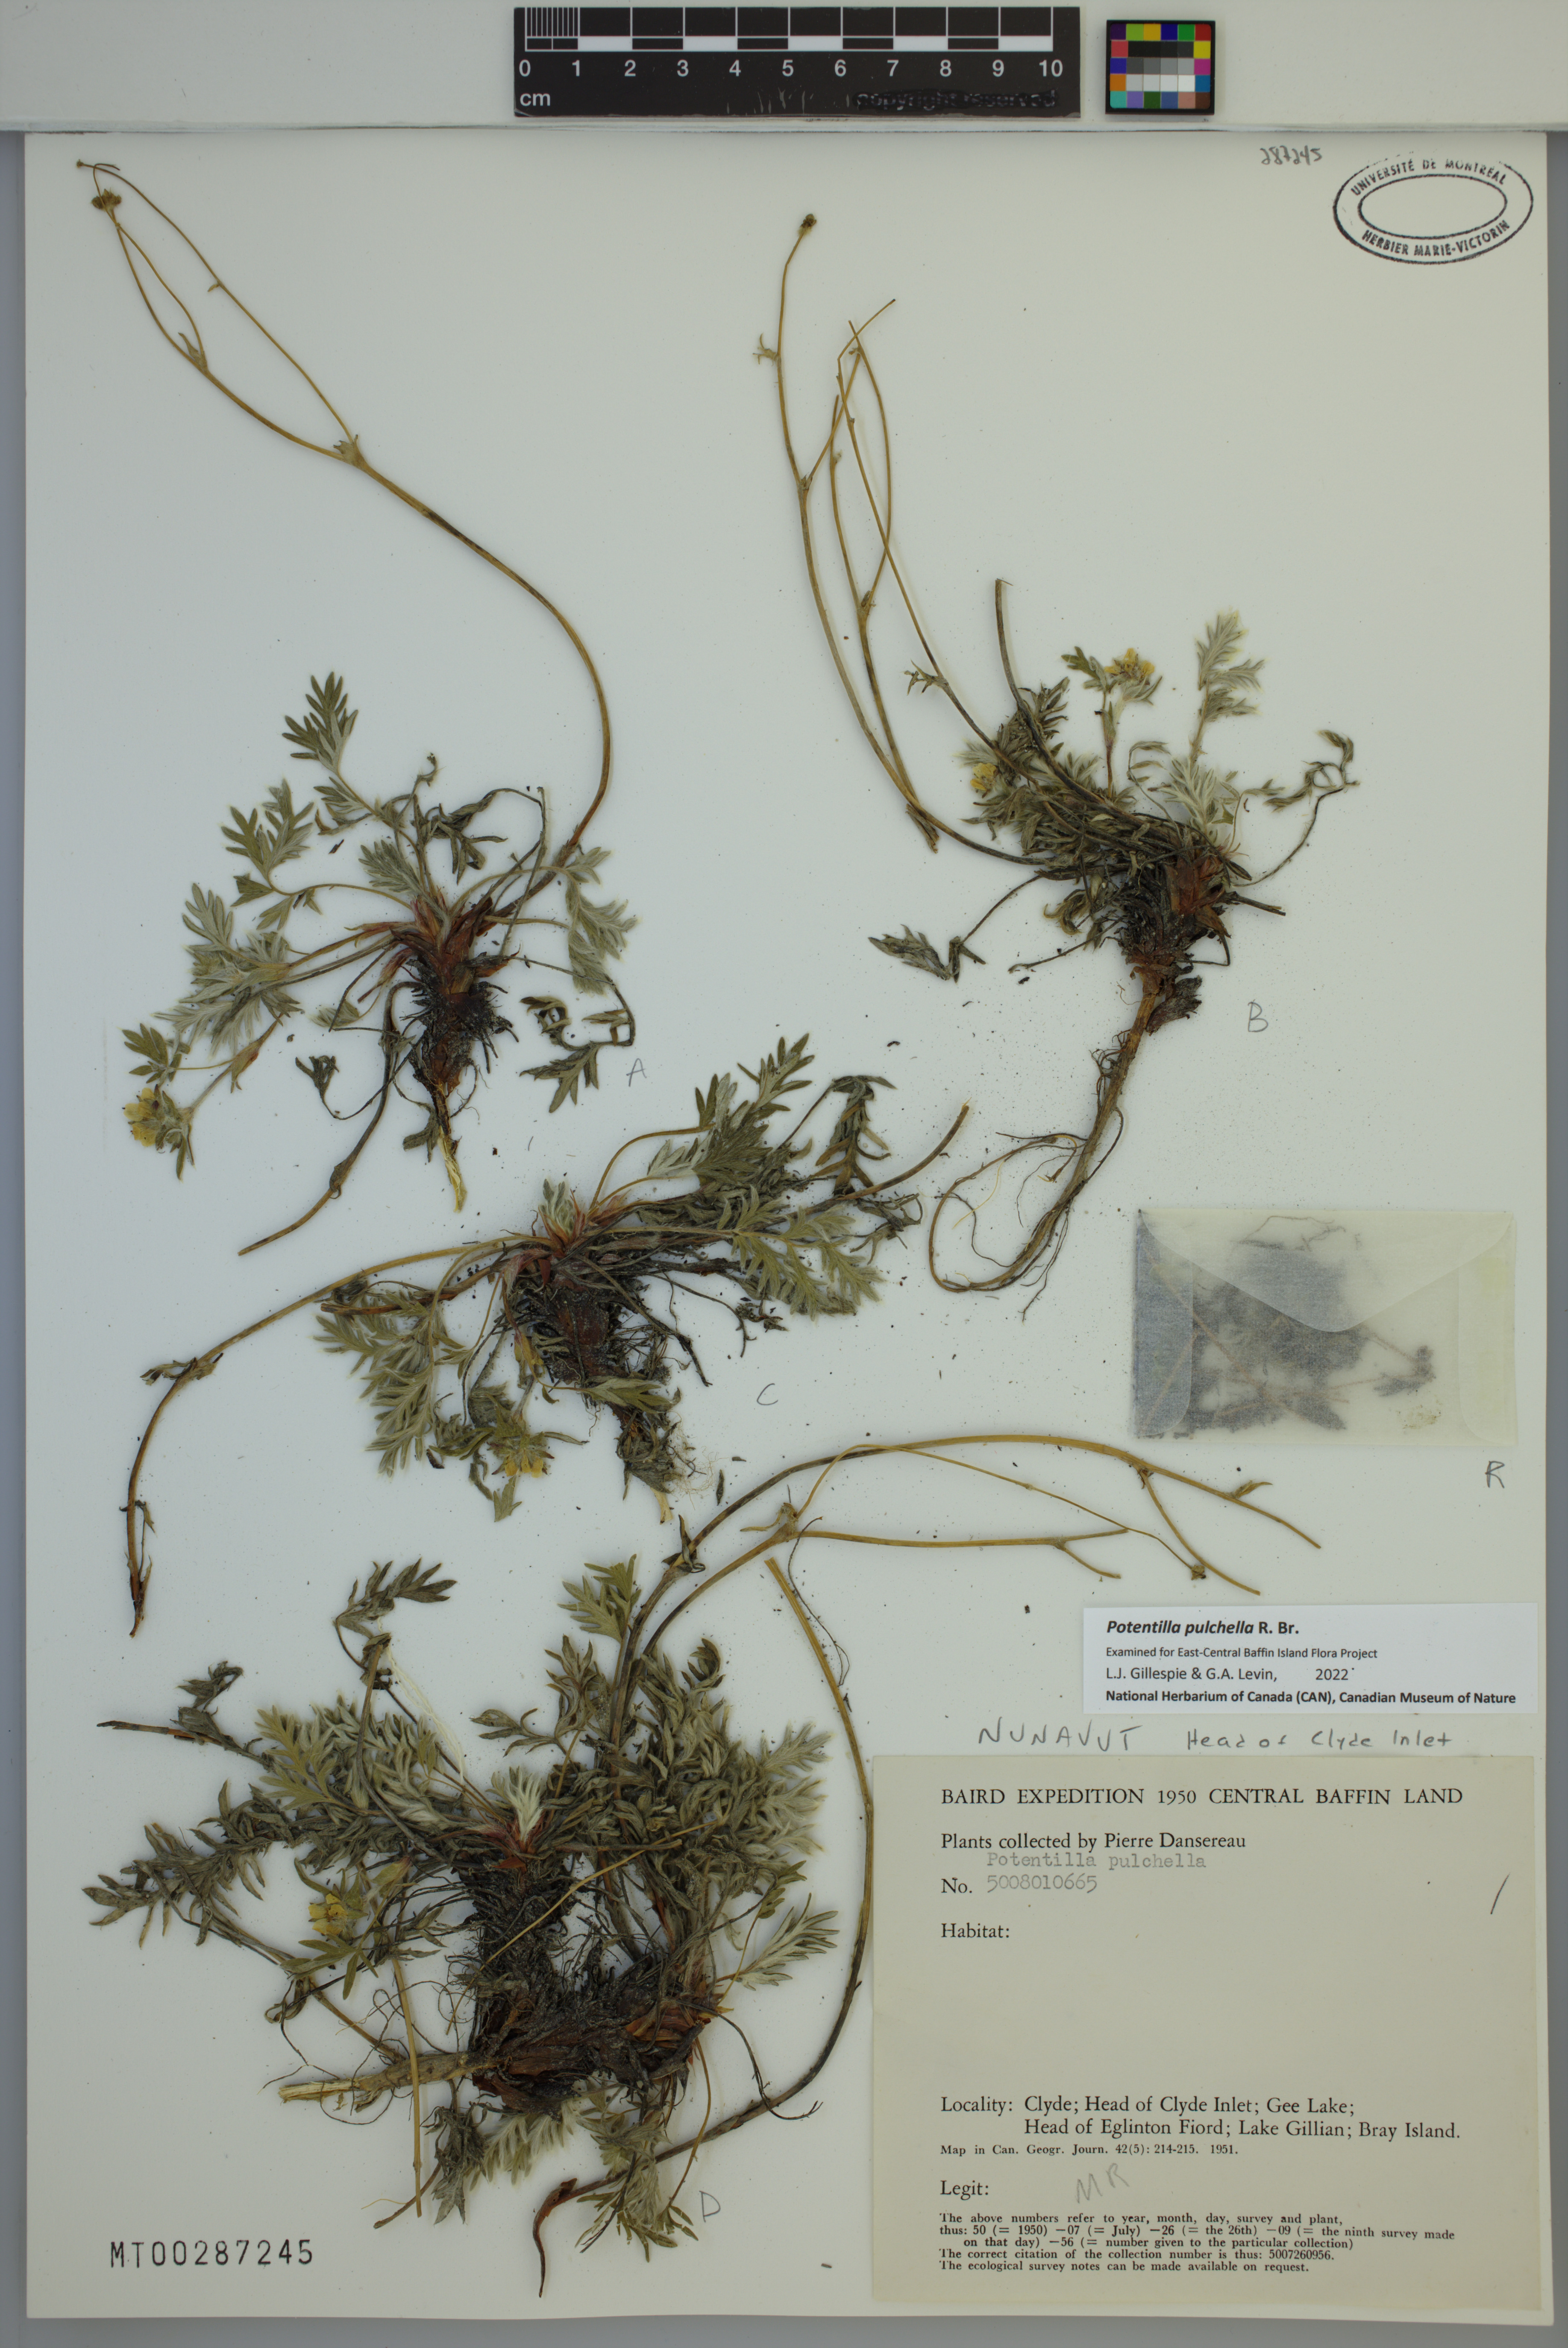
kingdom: Plantae
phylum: Tracheophyta
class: Magnoliopsida
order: Rosales
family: Rosaceae
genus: Potentilla
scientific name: Potentilla pulchella
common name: Pretty cinquefoil
